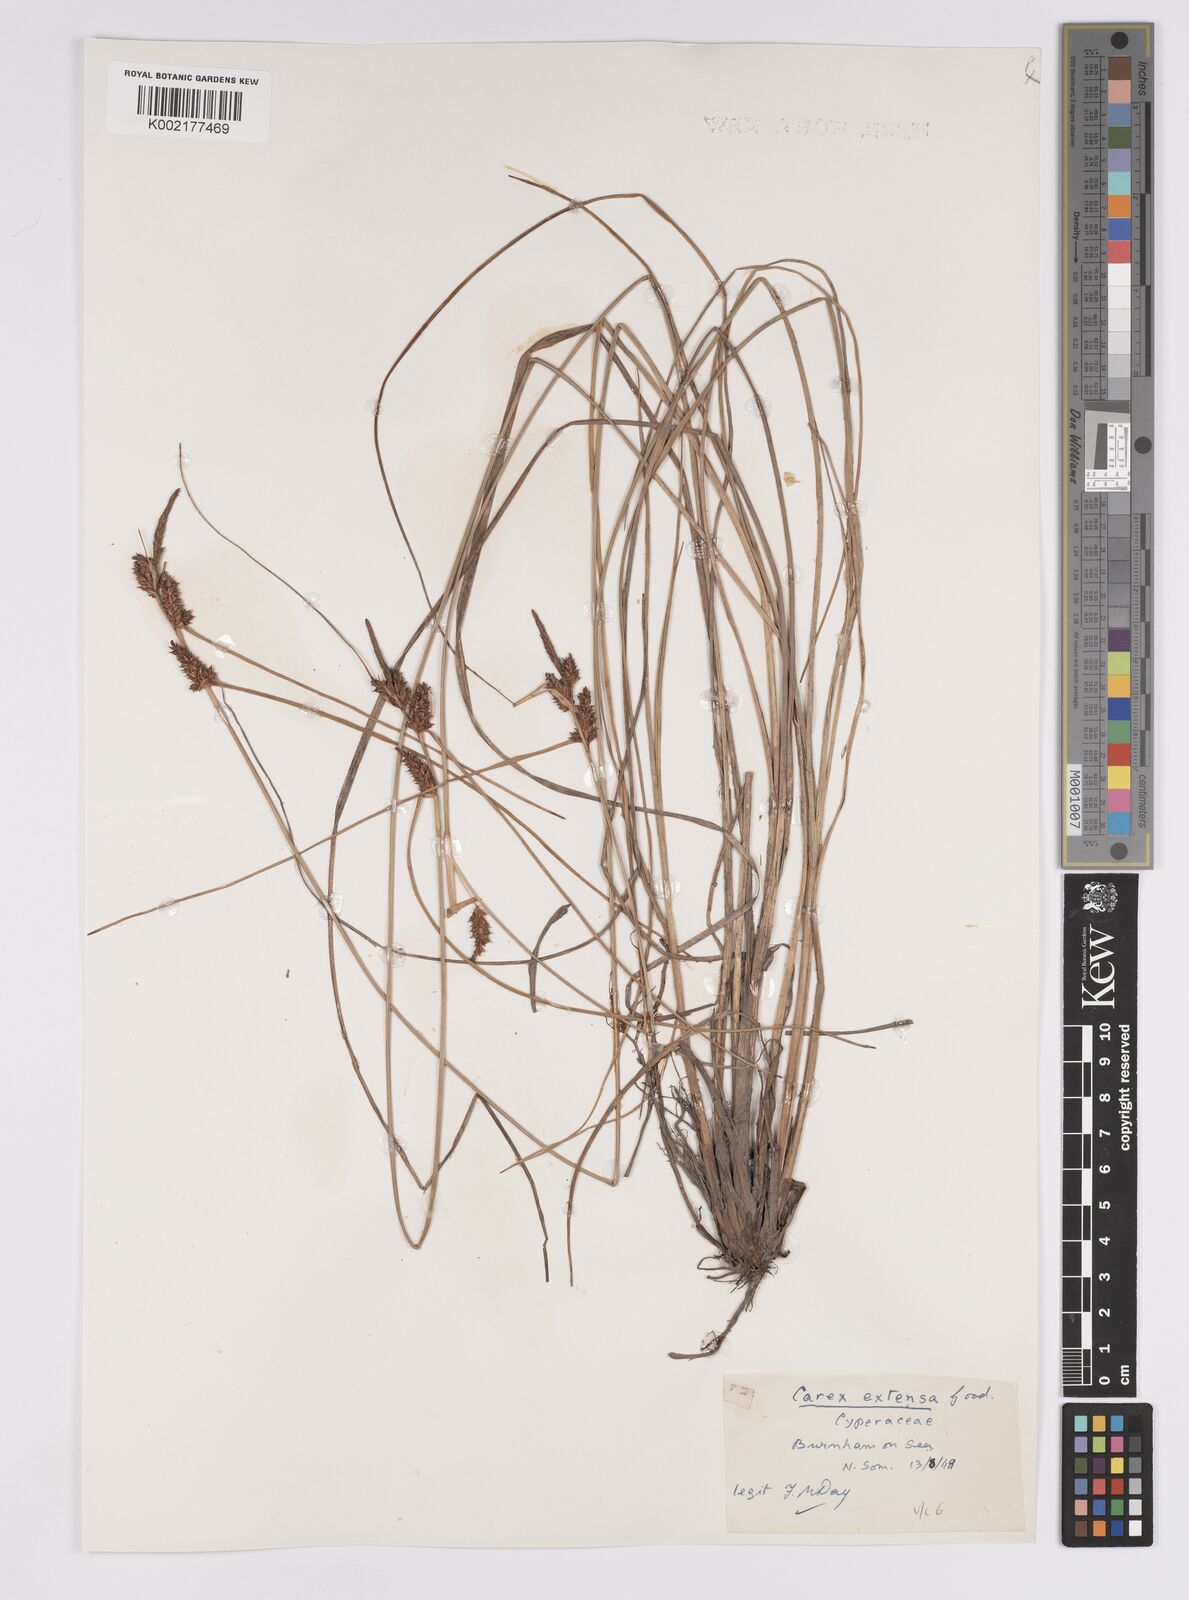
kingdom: Plantae
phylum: Tracheophyta
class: Liliopsida
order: Poales
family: Cyperaceae
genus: Carex
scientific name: Carex extensa
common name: Long-bracted sedge
